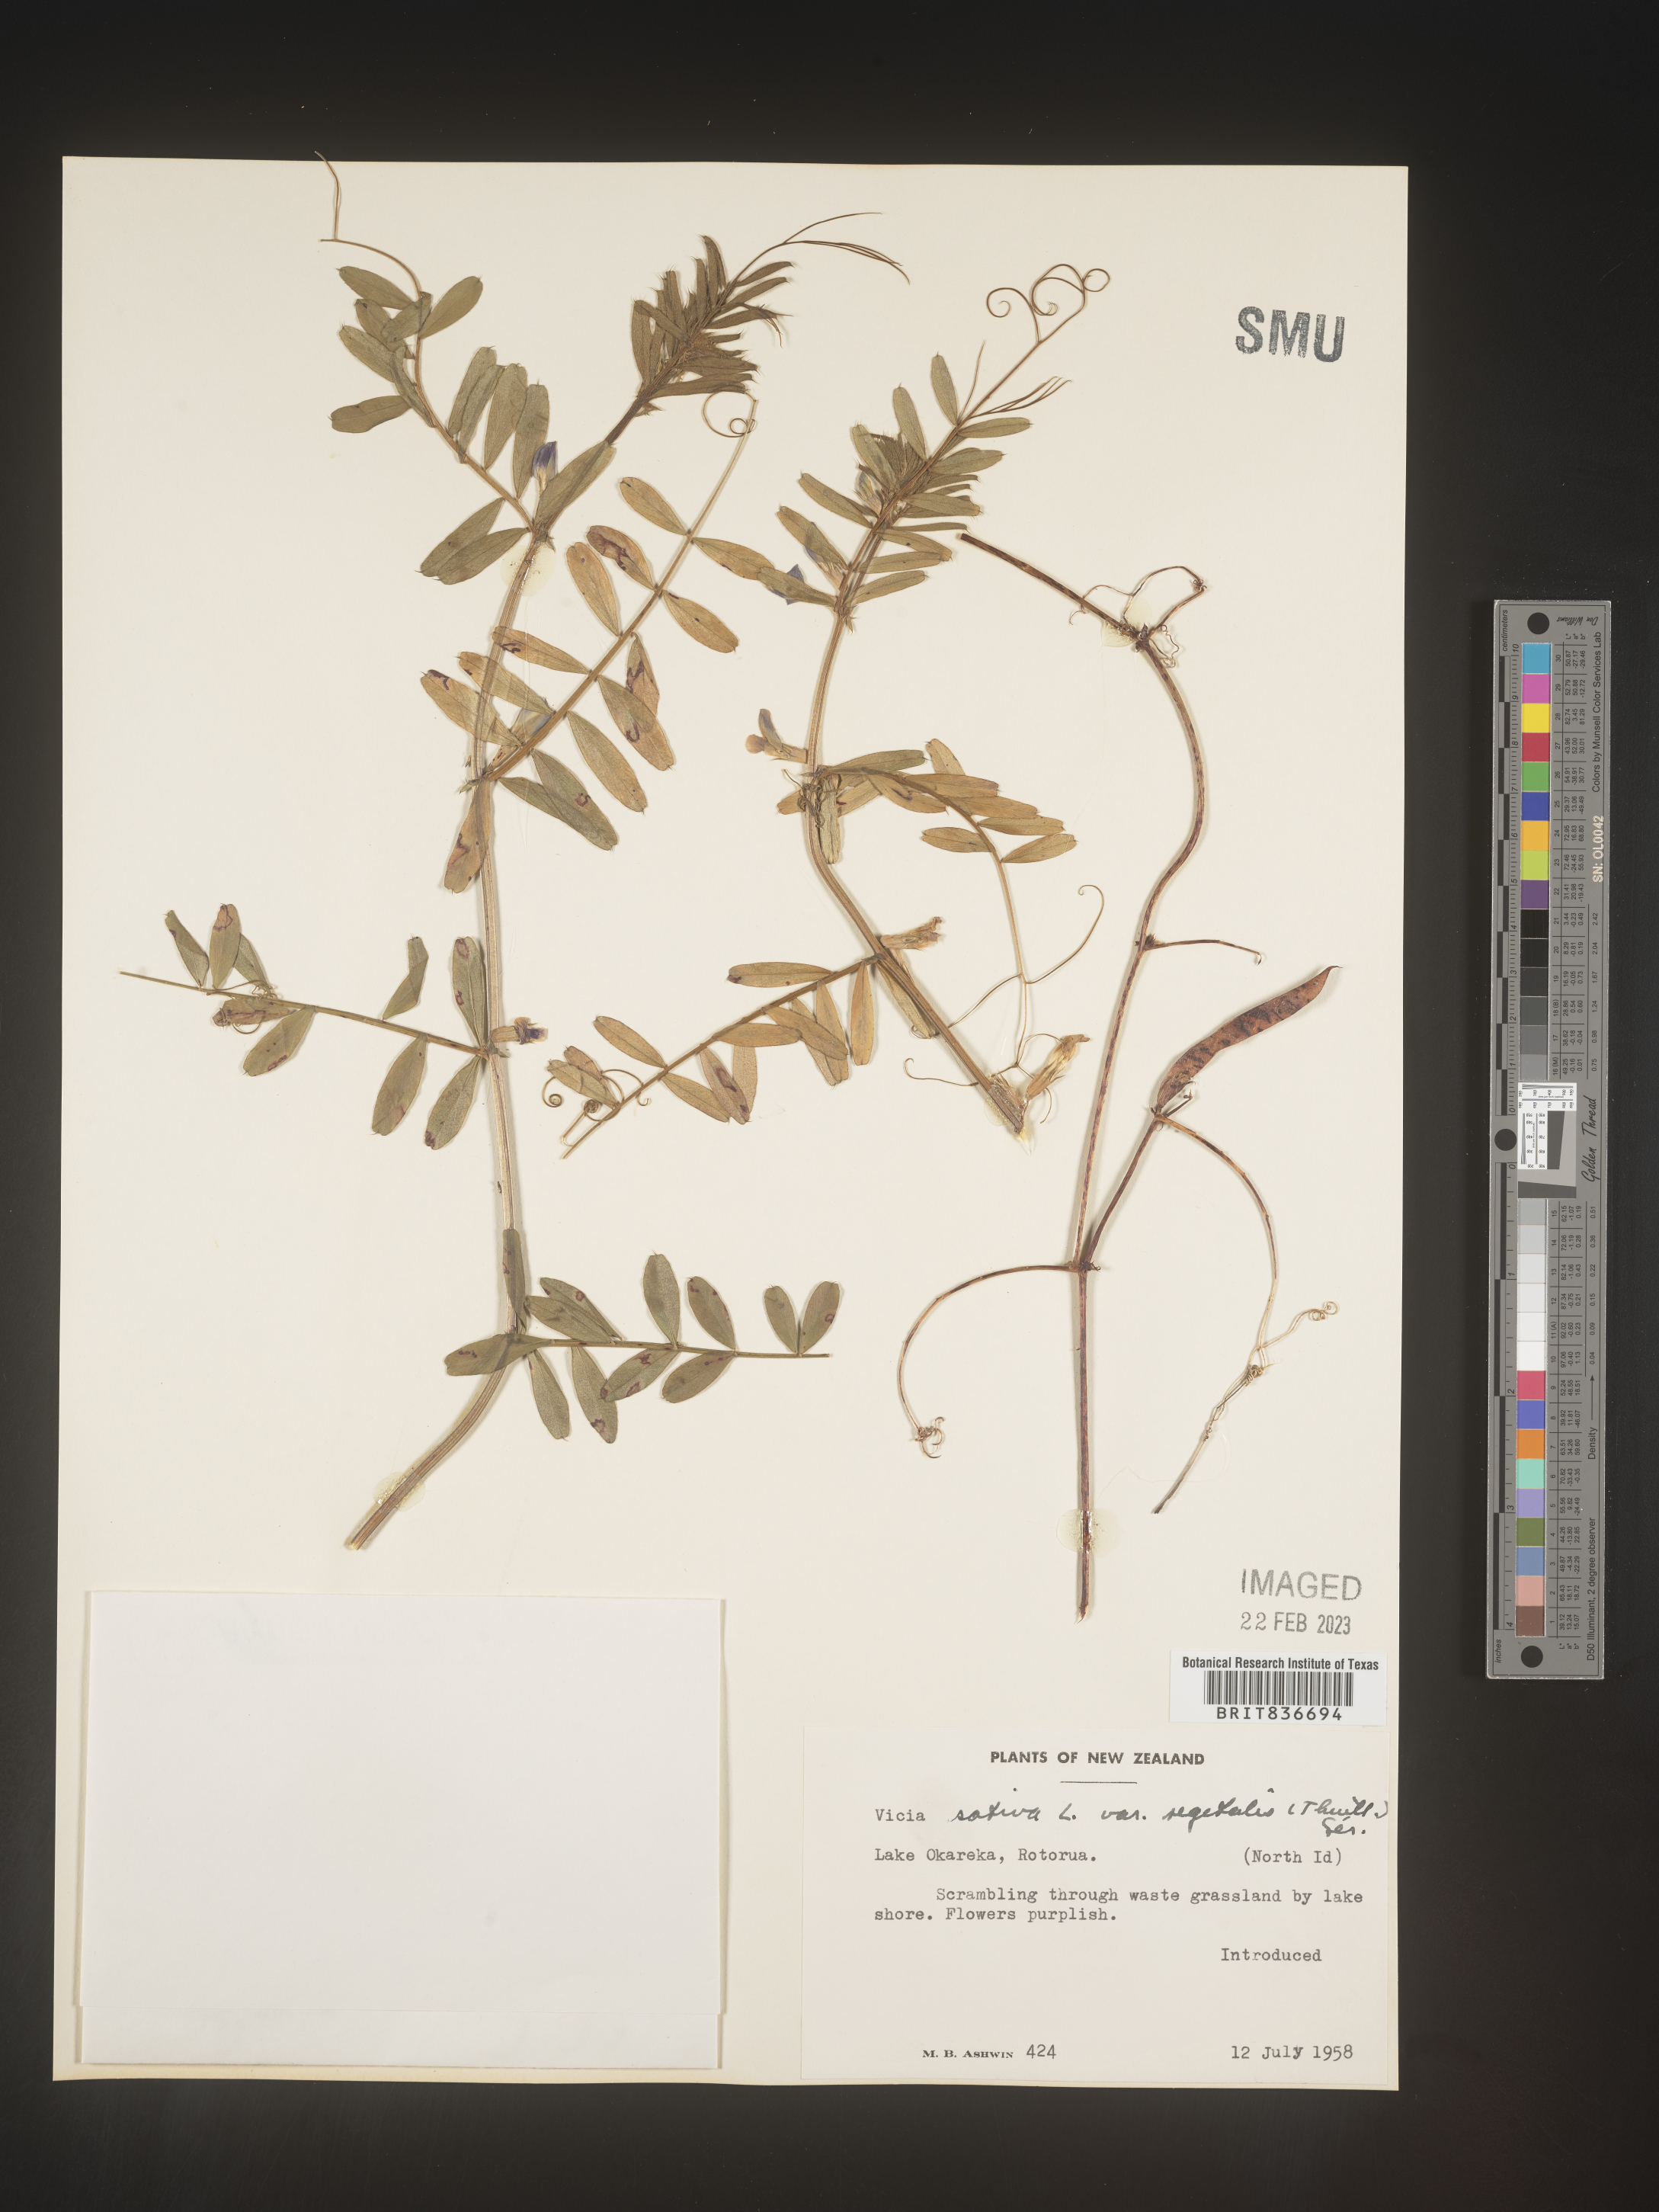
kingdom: Plantae
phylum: Tracheophyta
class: Magnoliopsida
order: Fabales
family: Fabaceae
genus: Vicia
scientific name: Vicia
